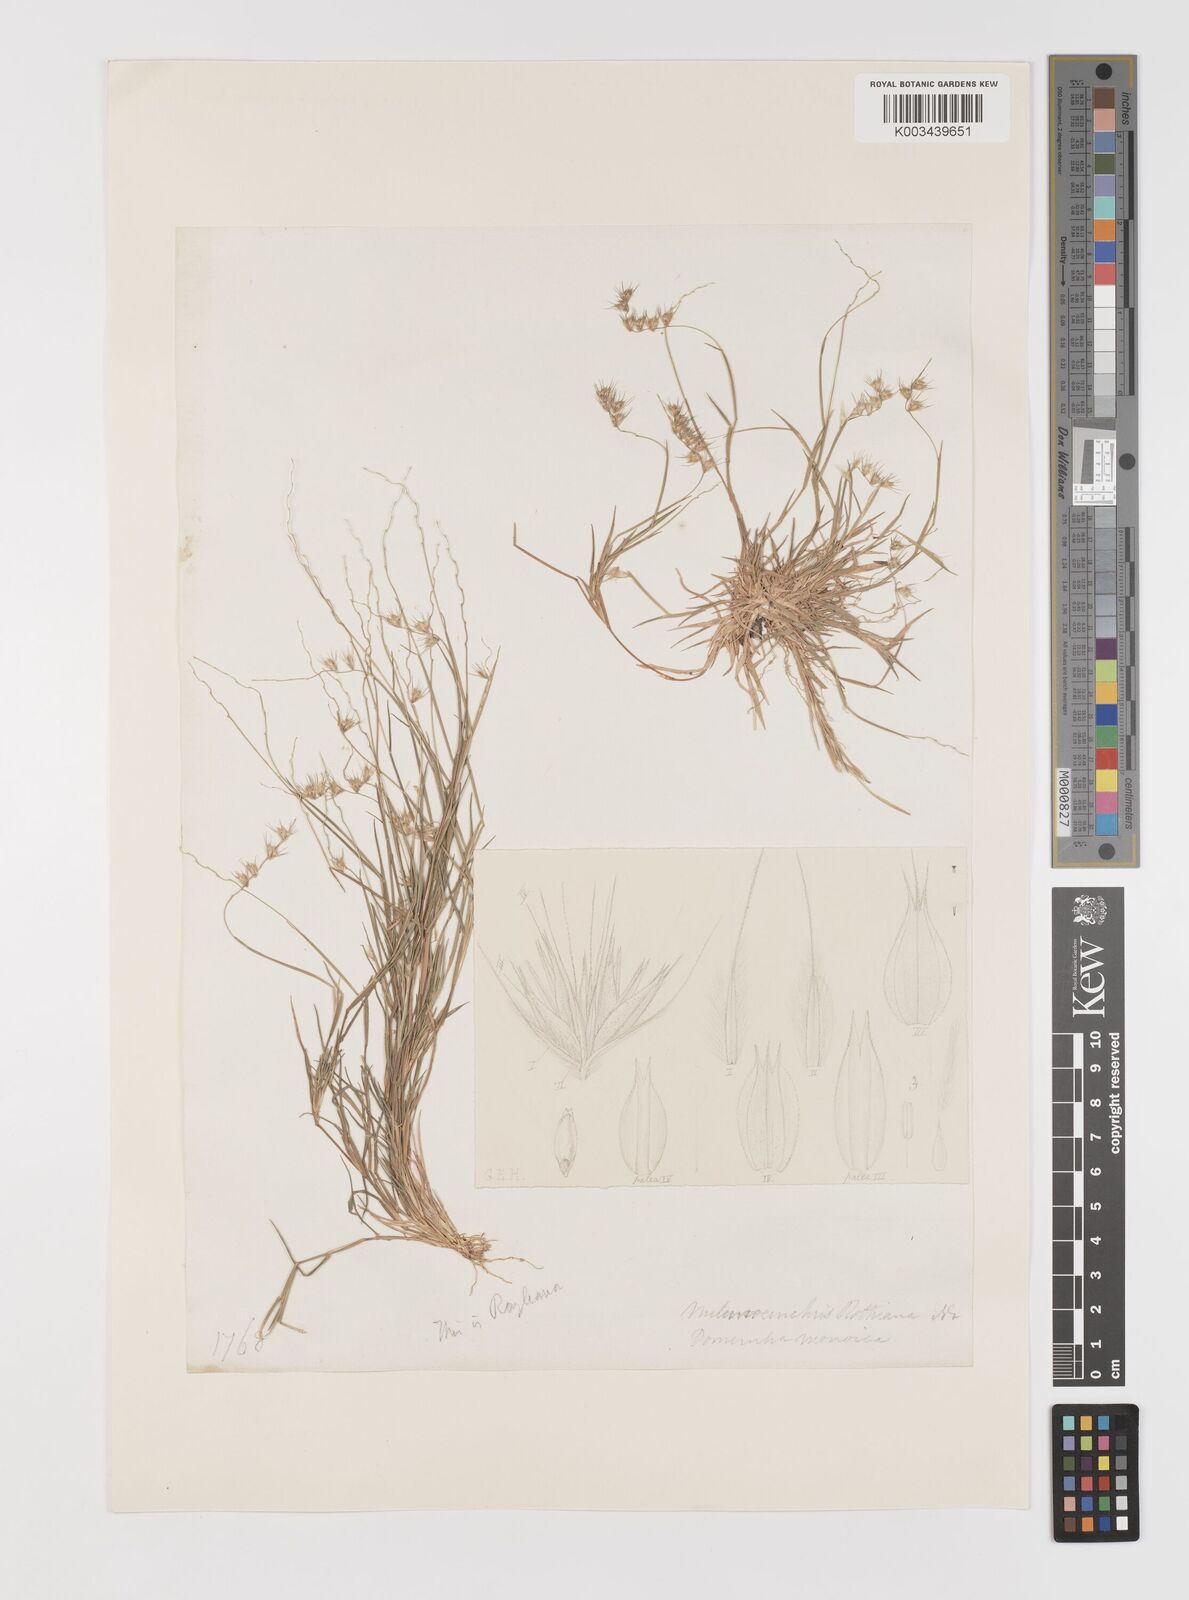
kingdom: Plantae
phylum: Tracheophyta
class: Liliopsida
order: Poales
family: Poaceae
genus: Melanocenchris
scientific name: Melanocenchris jacquemontii
